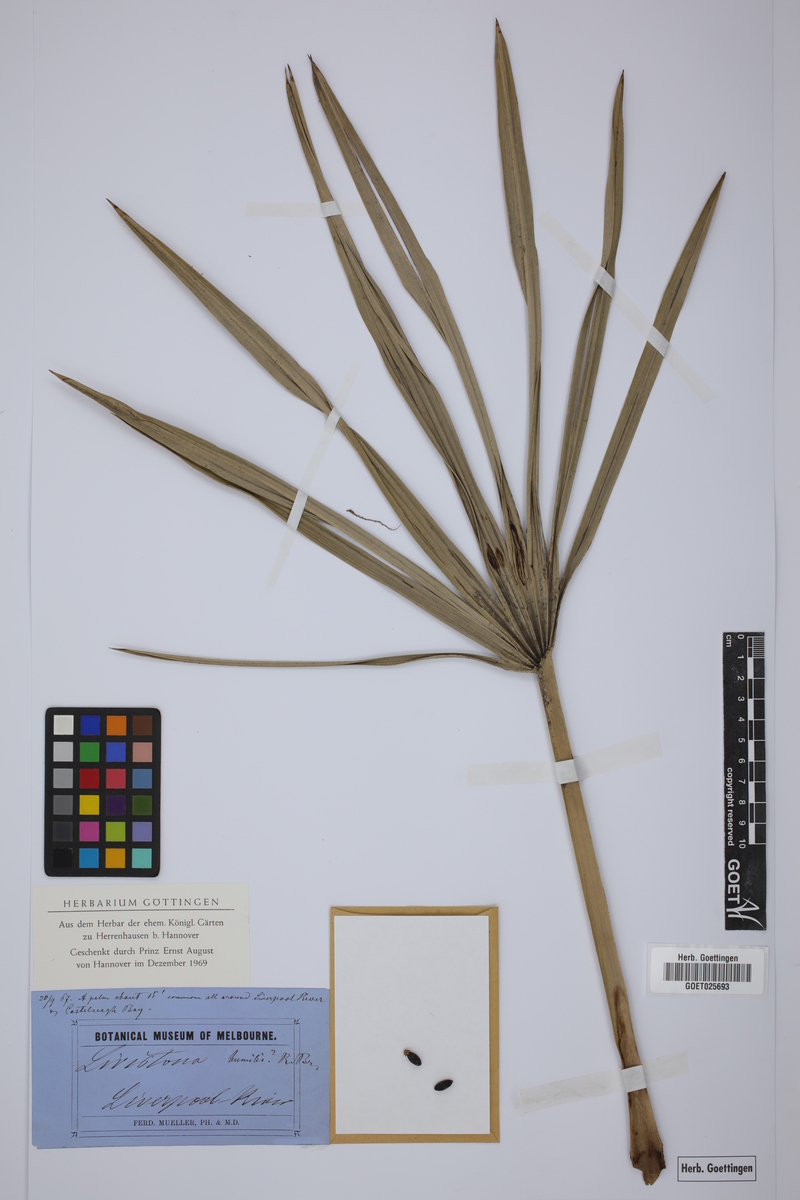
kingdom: Plantae
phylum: Tracheophyta
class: Liliopsida
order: Arecales
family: Arecaceae
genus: Livistona
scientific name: Livistona humilis
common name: Cabbage palm
